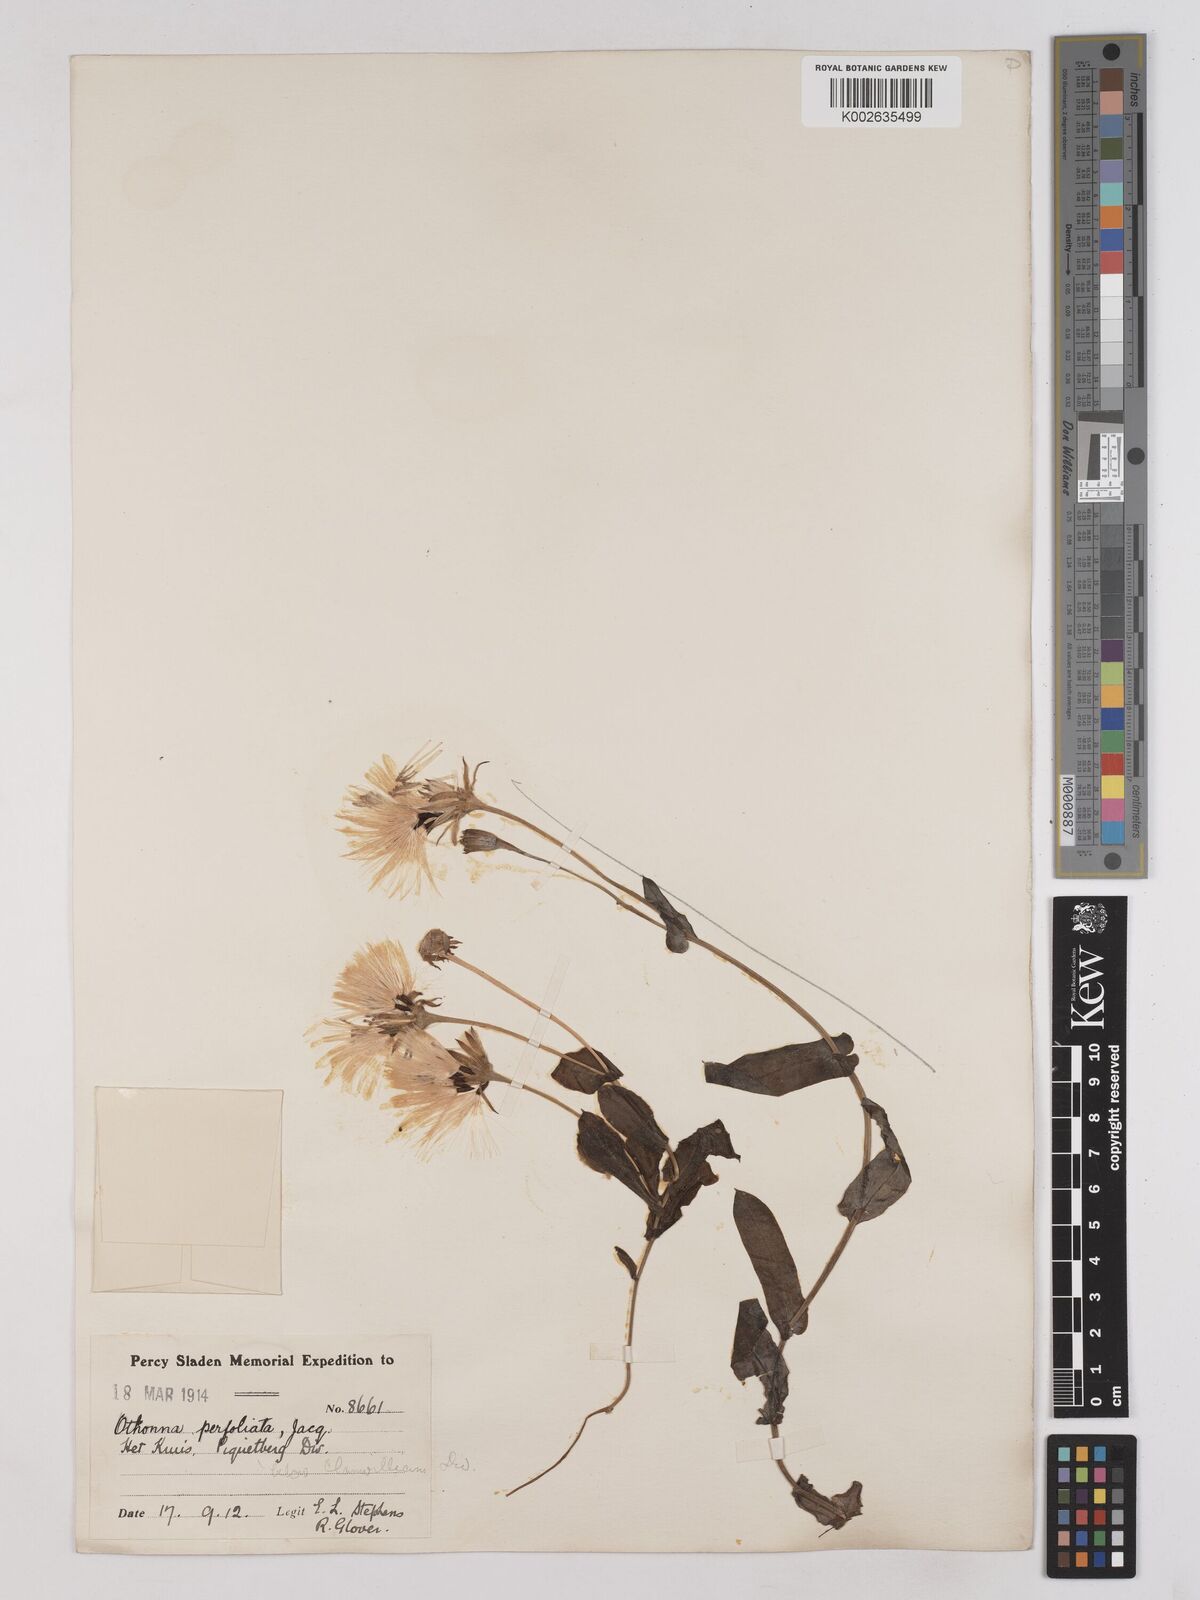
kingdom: Plantae
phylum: Tracheophyta
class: Magnoliopsida
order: Asterales
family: Asteraceae
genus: Othonna
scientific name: Othonna perfoliata
